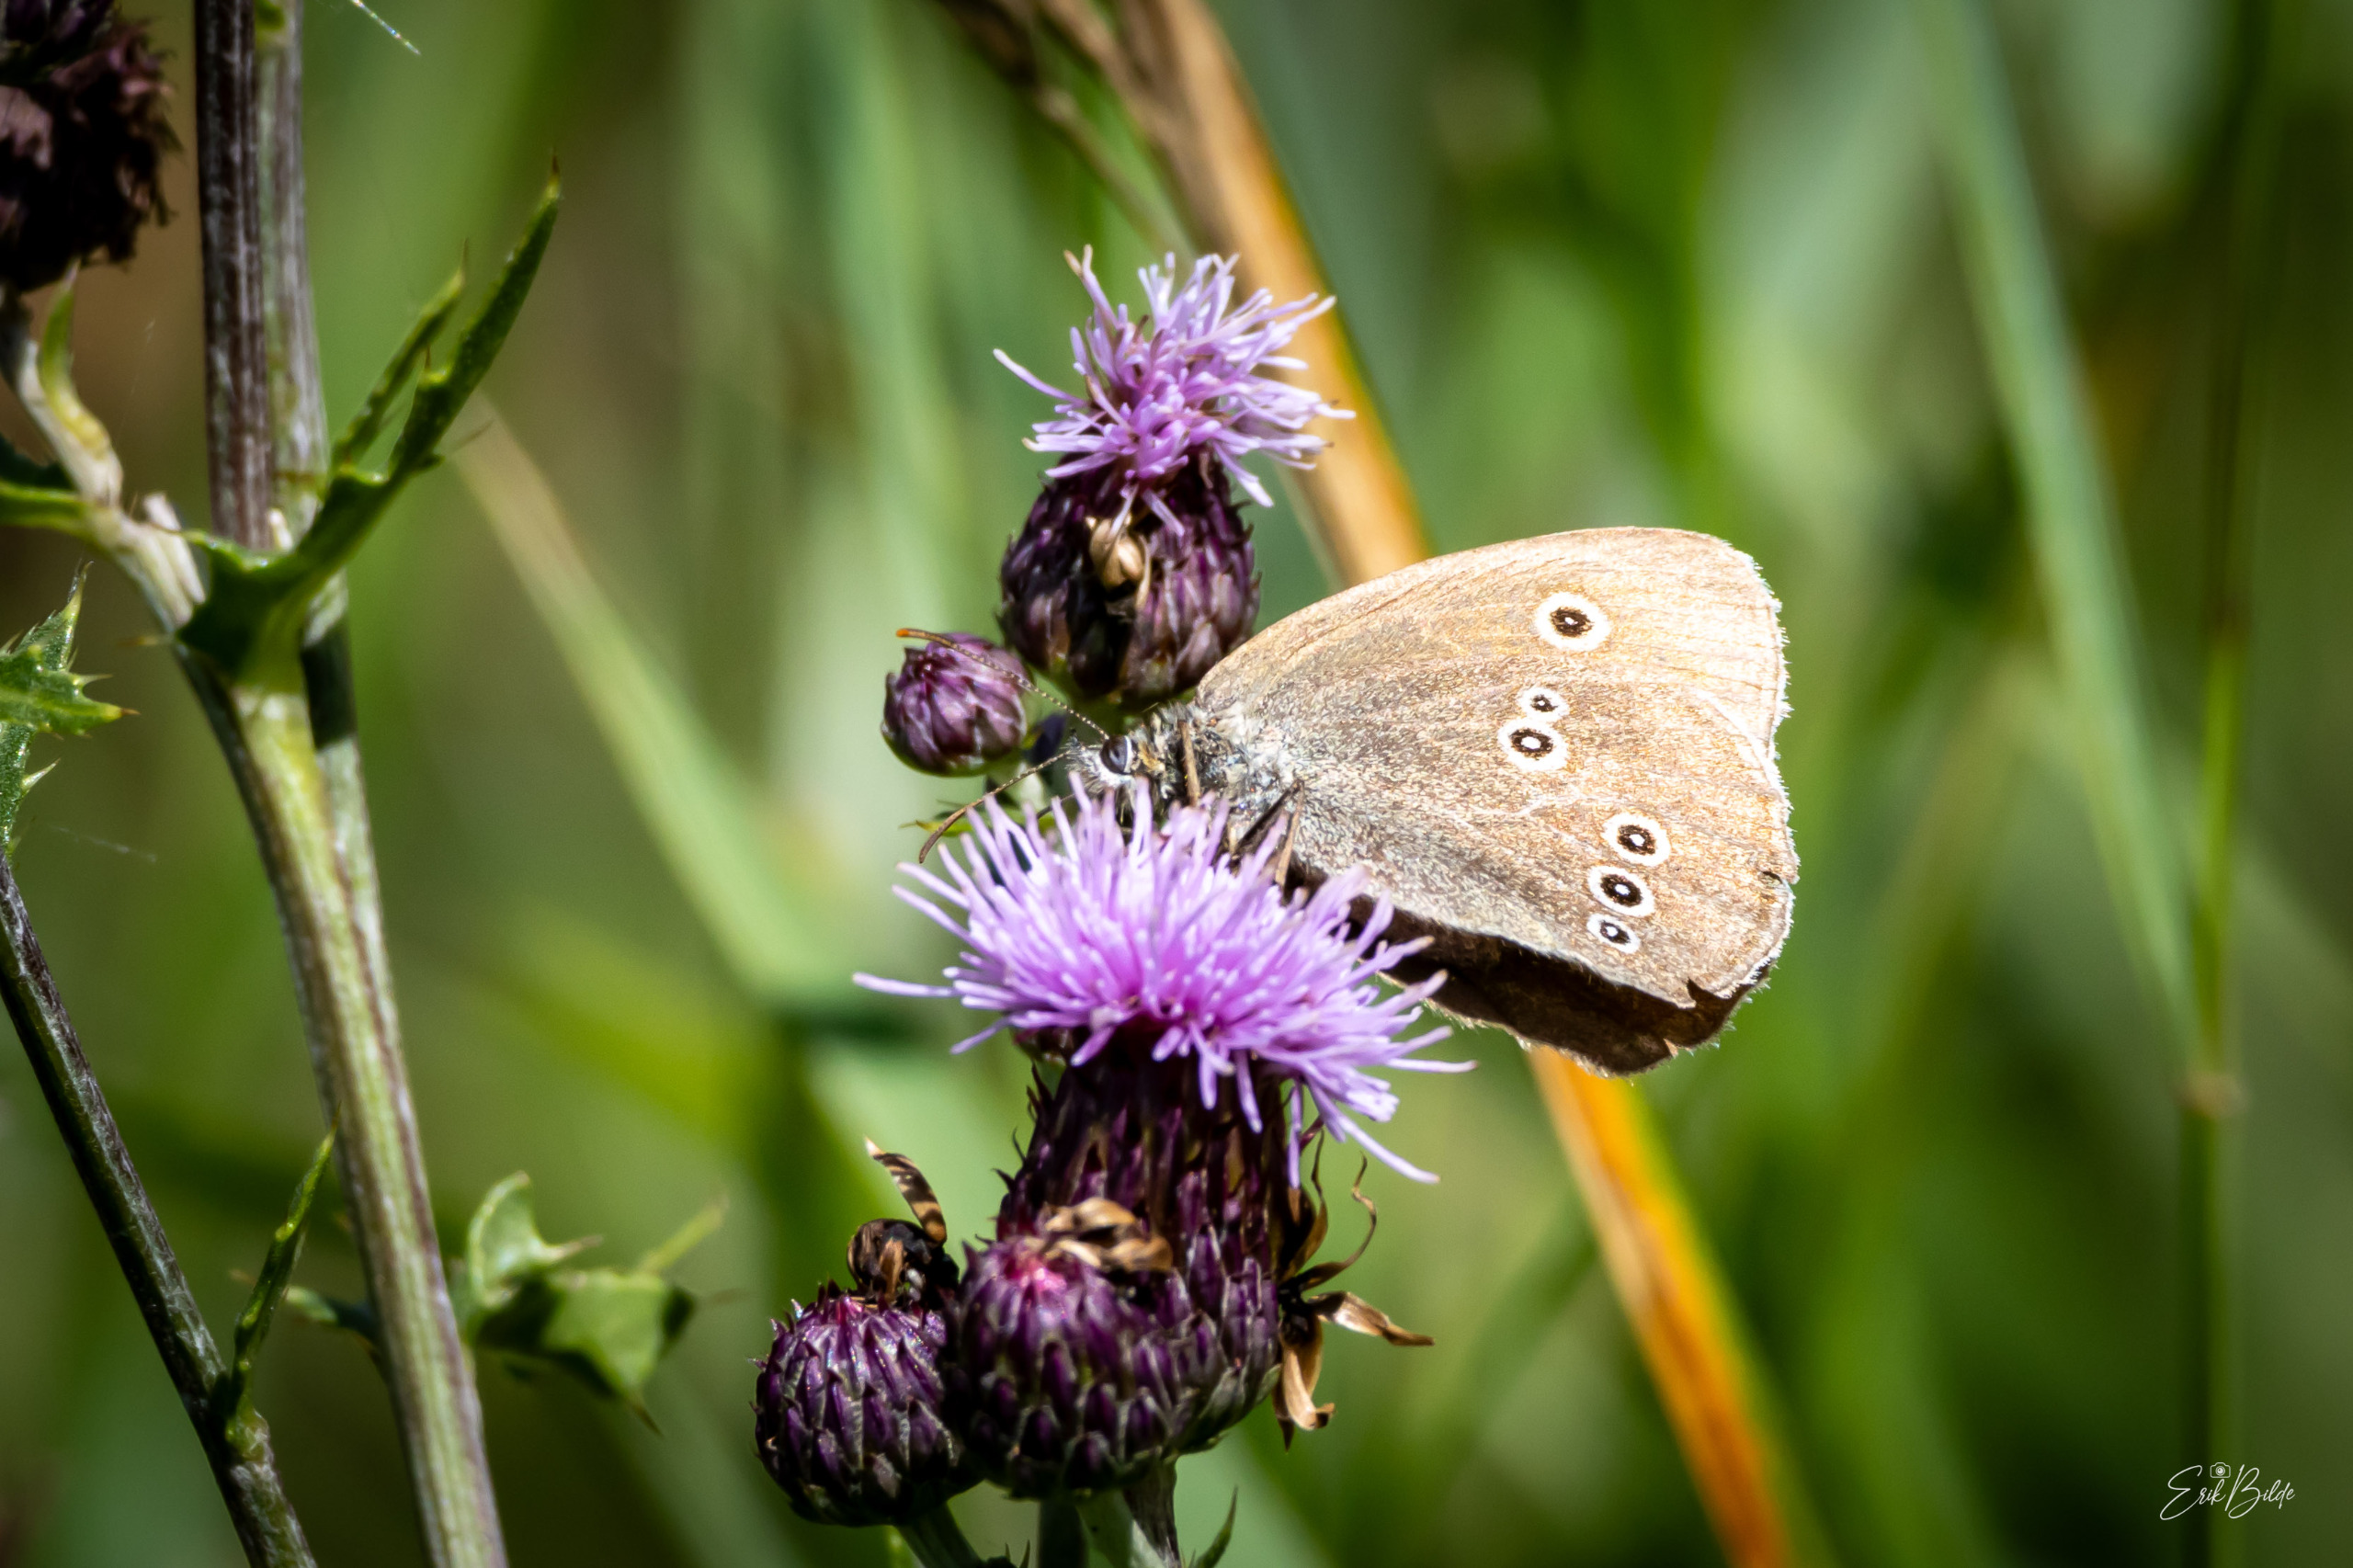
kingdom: Animalia
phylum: Arthropoda
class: Insecta
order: Lepidoptera
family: Nymphalidae
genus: Aphantopus
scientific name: Aphantopus hyperantus
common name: Engrandøje
